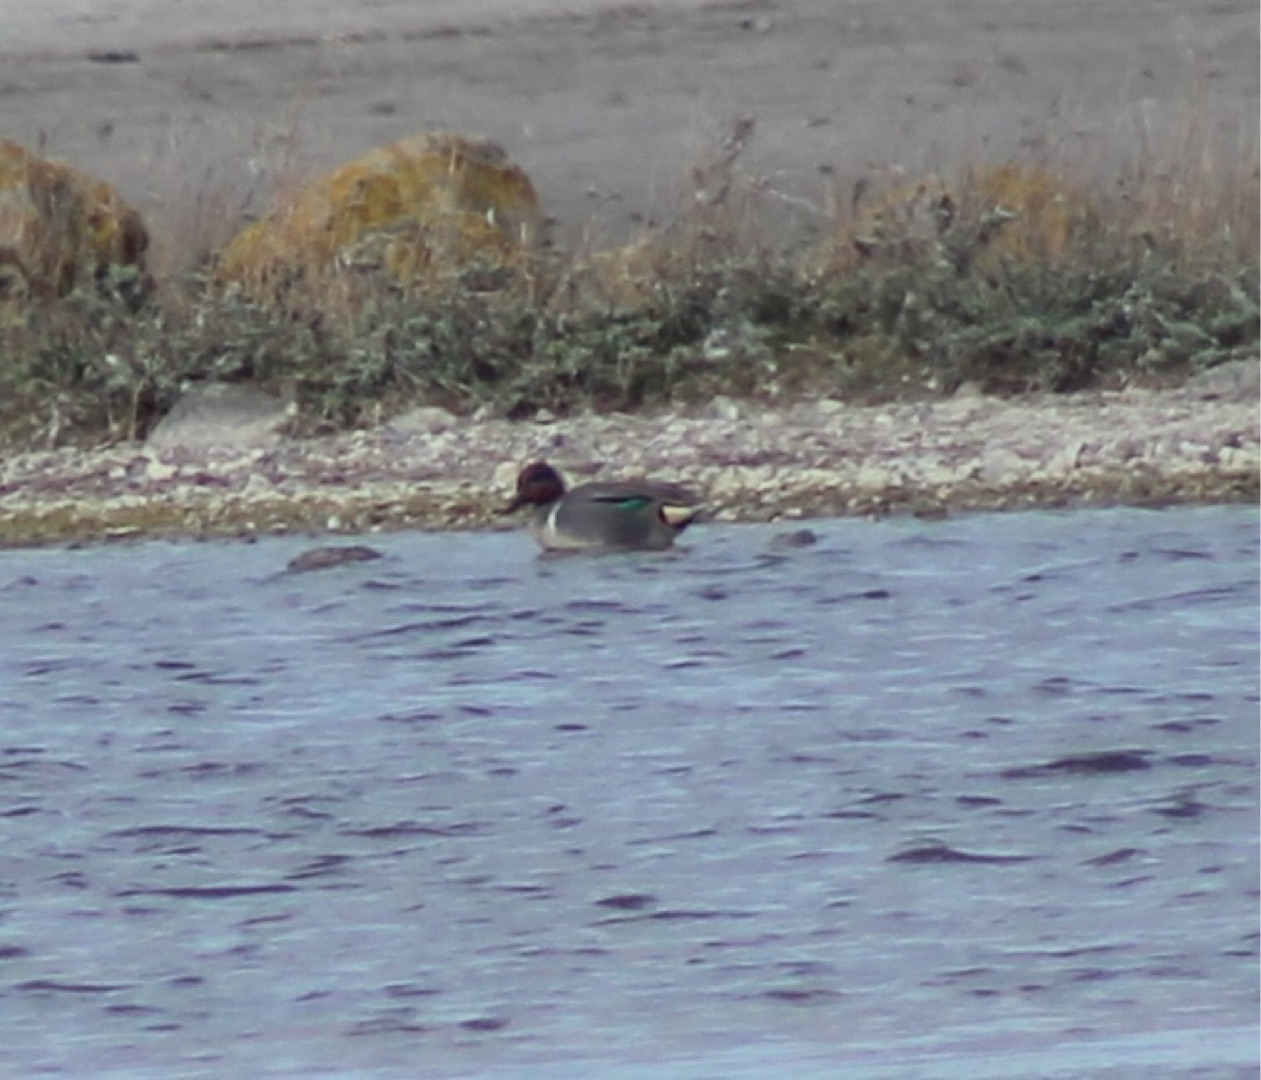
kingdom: Animalia
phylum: Chordata
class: Aves
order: Anseriformes
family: Anatidae
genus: Anas
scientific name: Anas carolinensis
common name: Amerikansk krikand
